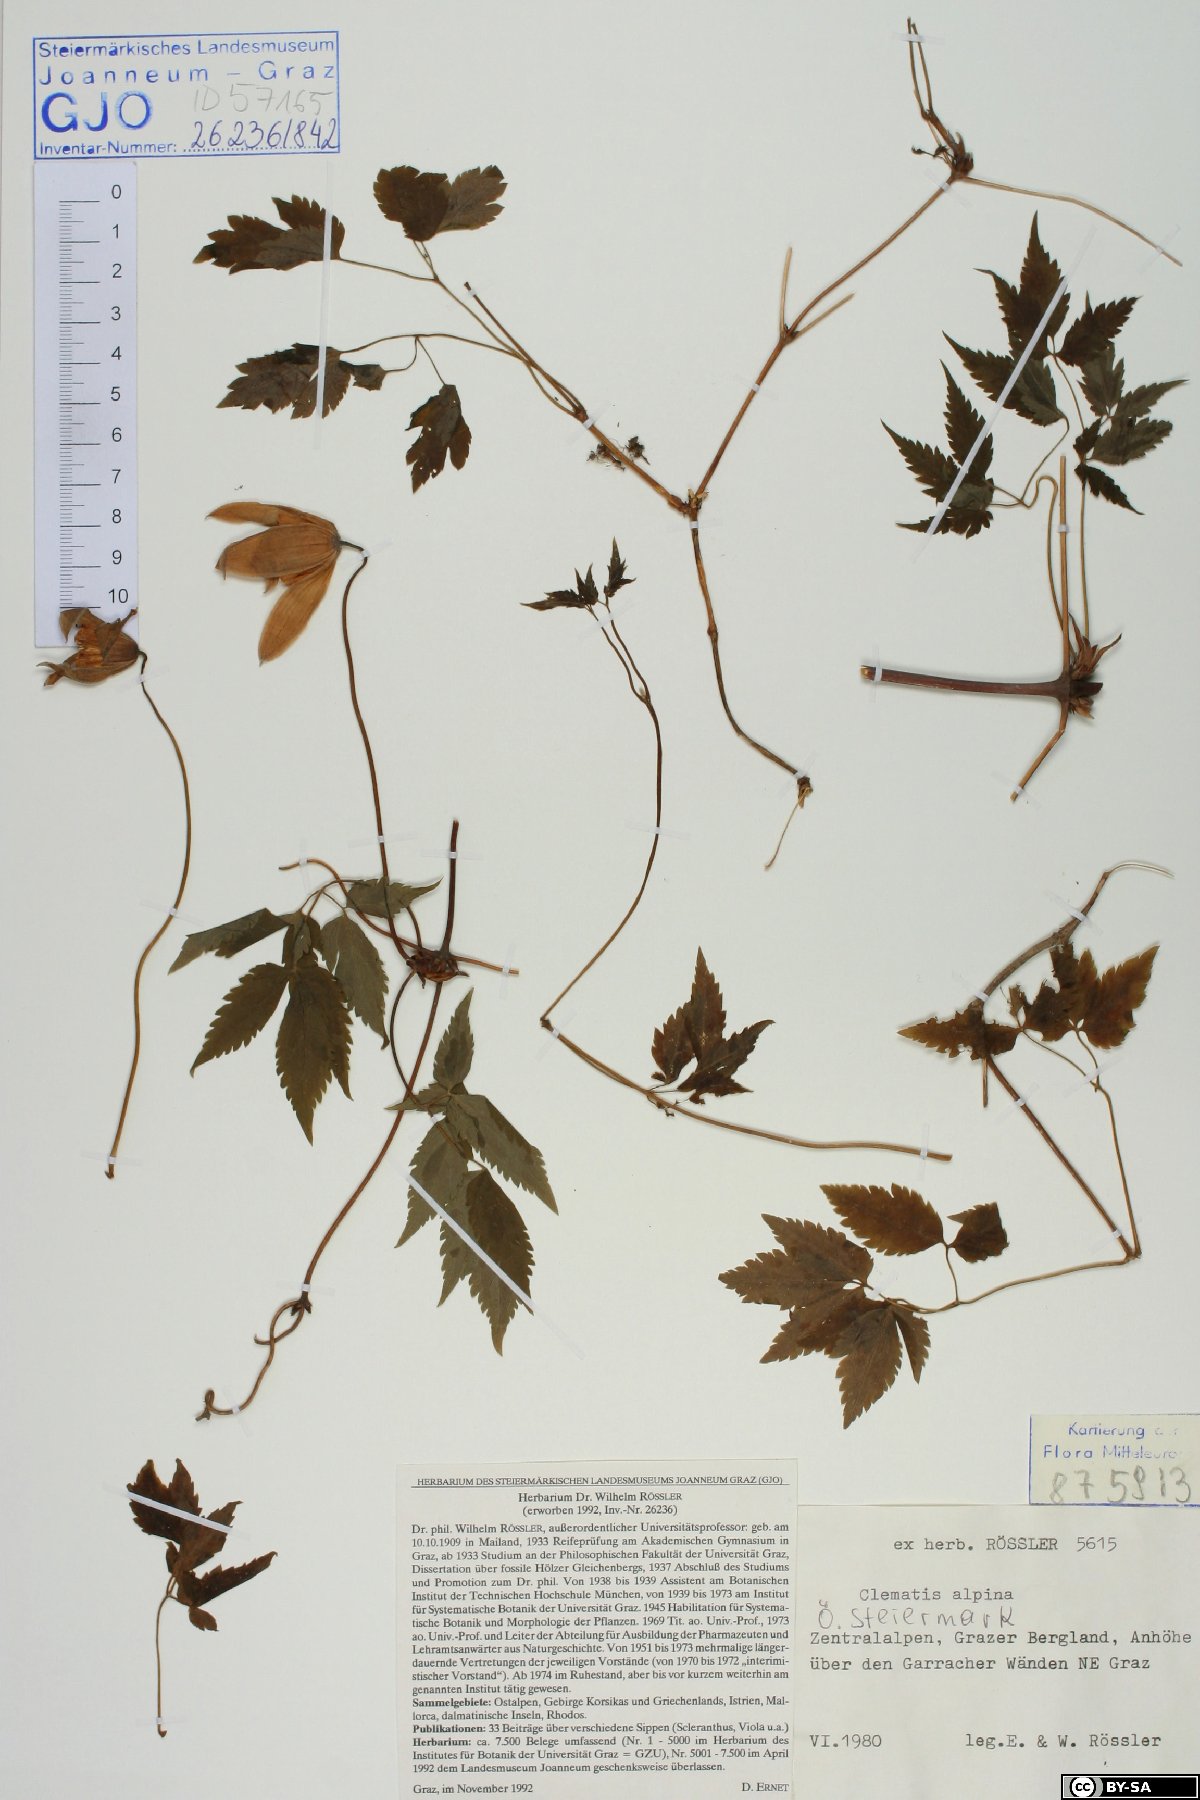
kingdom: Plantae
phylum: Tracheophyta
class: Magnoliopsida
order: Ranunculales
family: Ranunculaceae
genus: Clematis
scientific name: Clematis alpina
